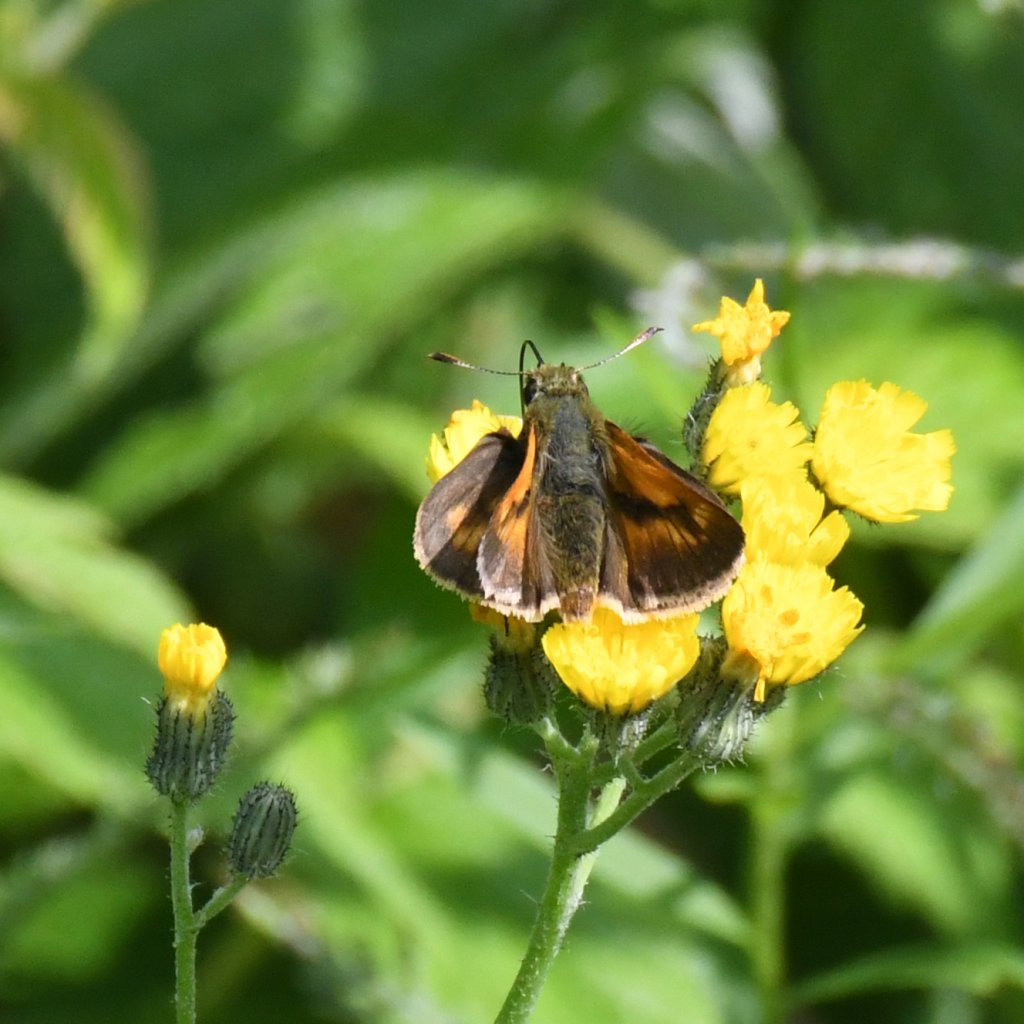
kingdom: Animalia
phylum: Arthropoda
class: Insecta
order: Lepidoptera
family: Hesperiidae
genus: Polites
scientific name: Polites
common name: Long Dash Skipper
